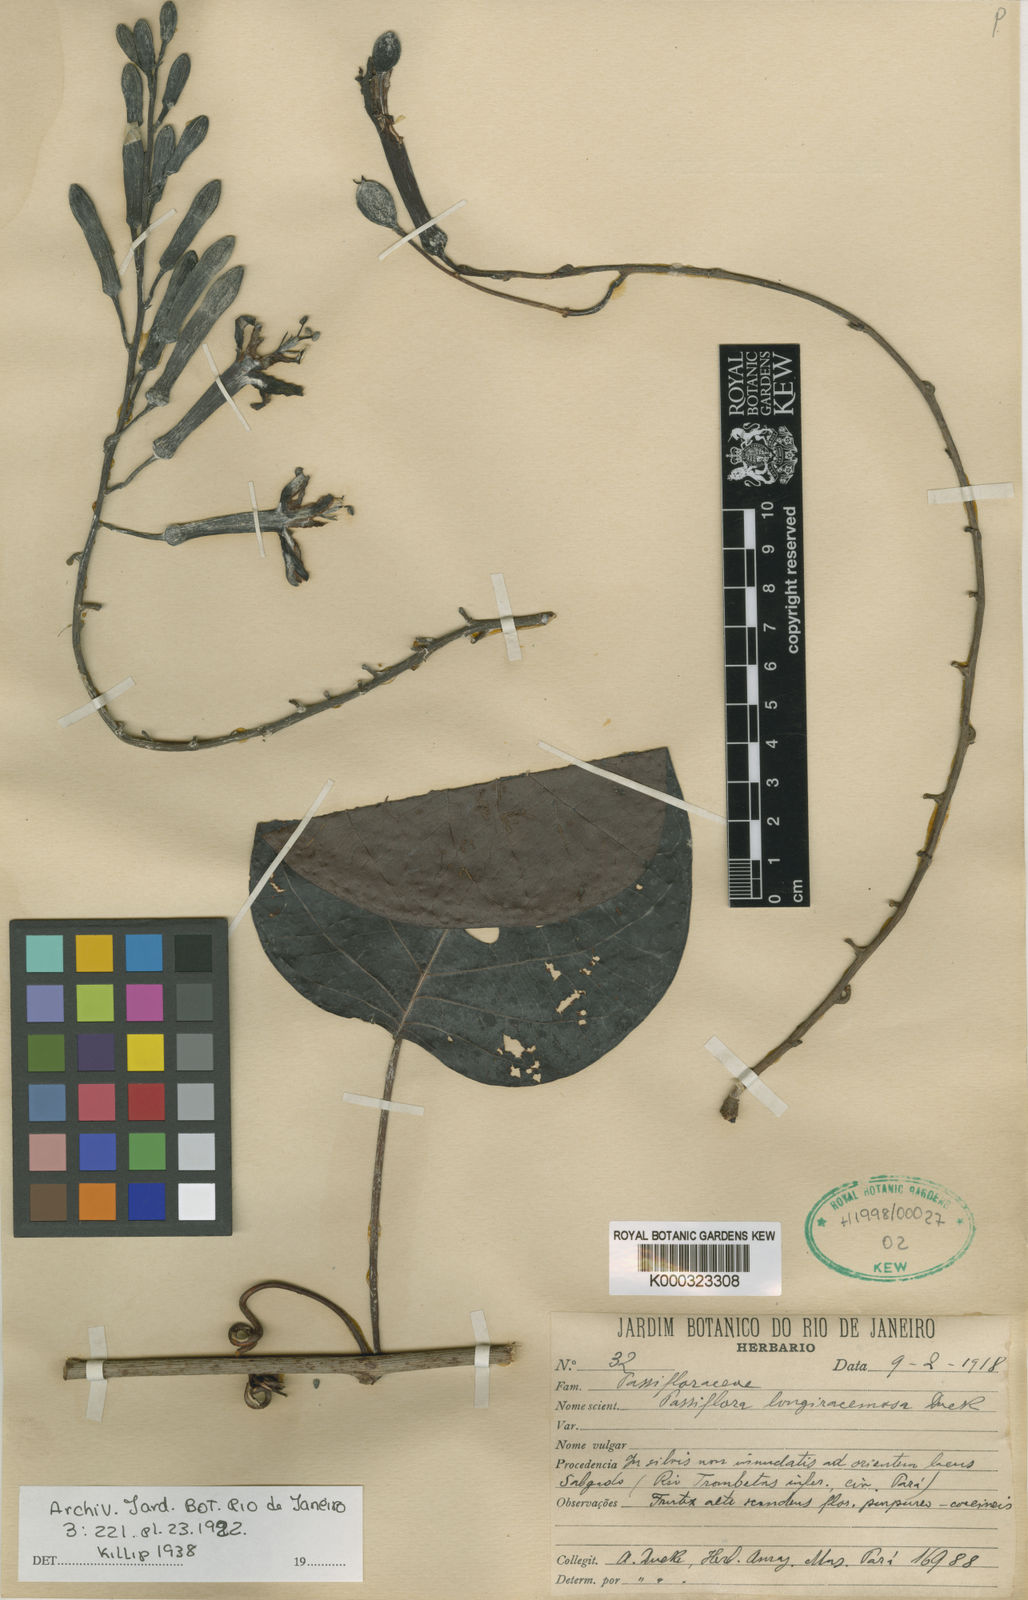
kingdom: Plantae
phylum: Tracheophyta
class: Magnoliopsida
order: Malpighiales
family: Passifloraceae
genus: Passiflora
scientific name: Passiflora longiracemosa
